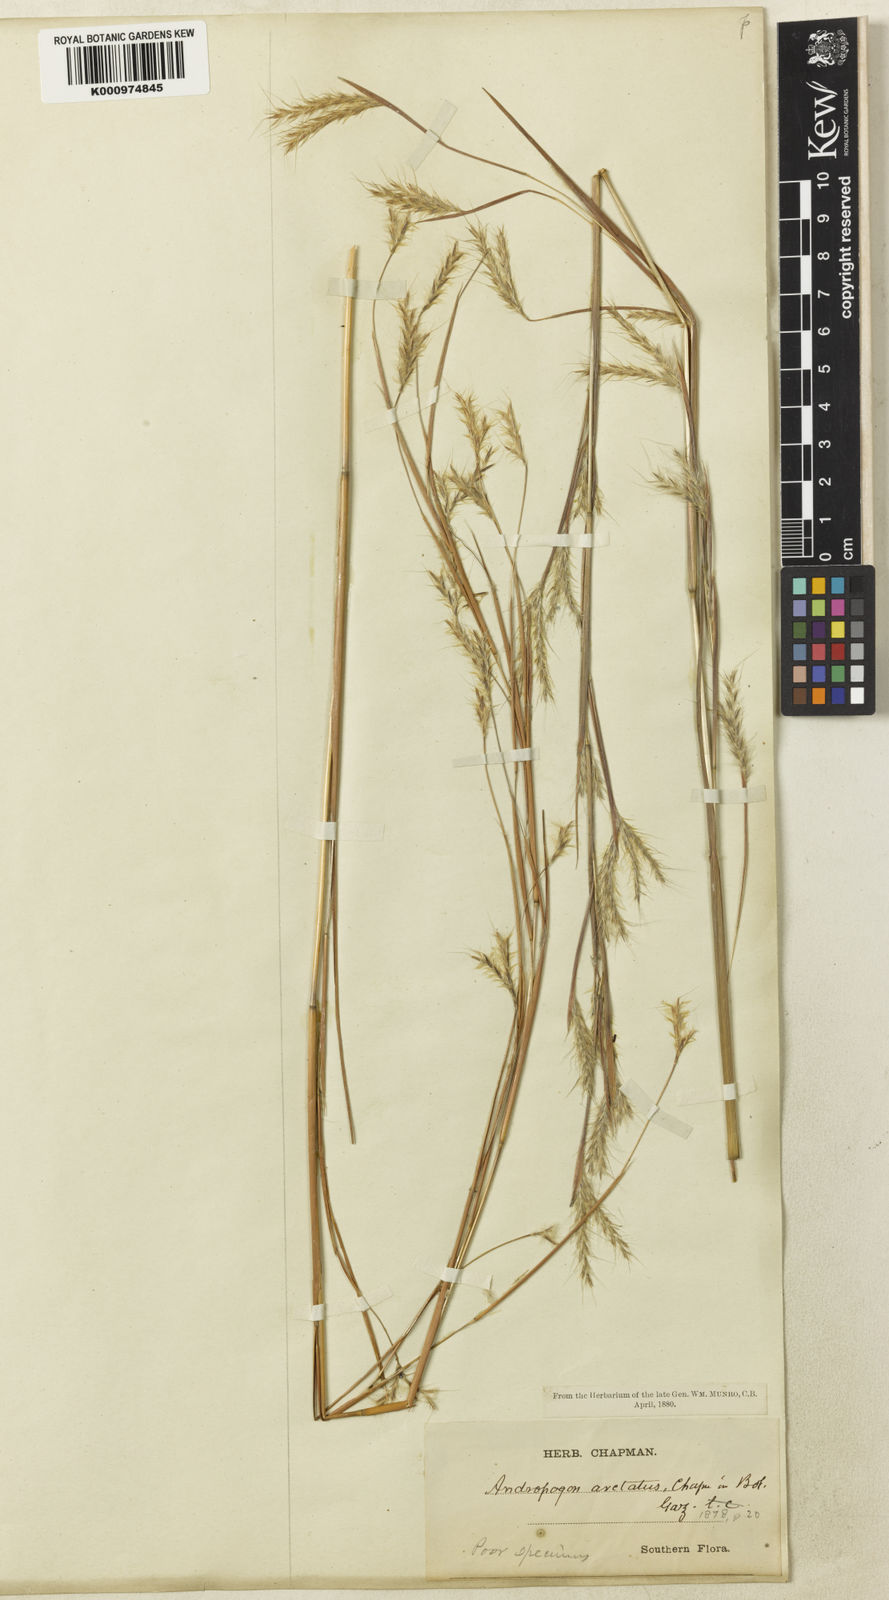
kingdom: Plantae
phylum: Tracheophyta
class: Liliopsida
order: Poales
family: Poaceae
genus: Andropogon
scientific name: Andropogon arctatus
